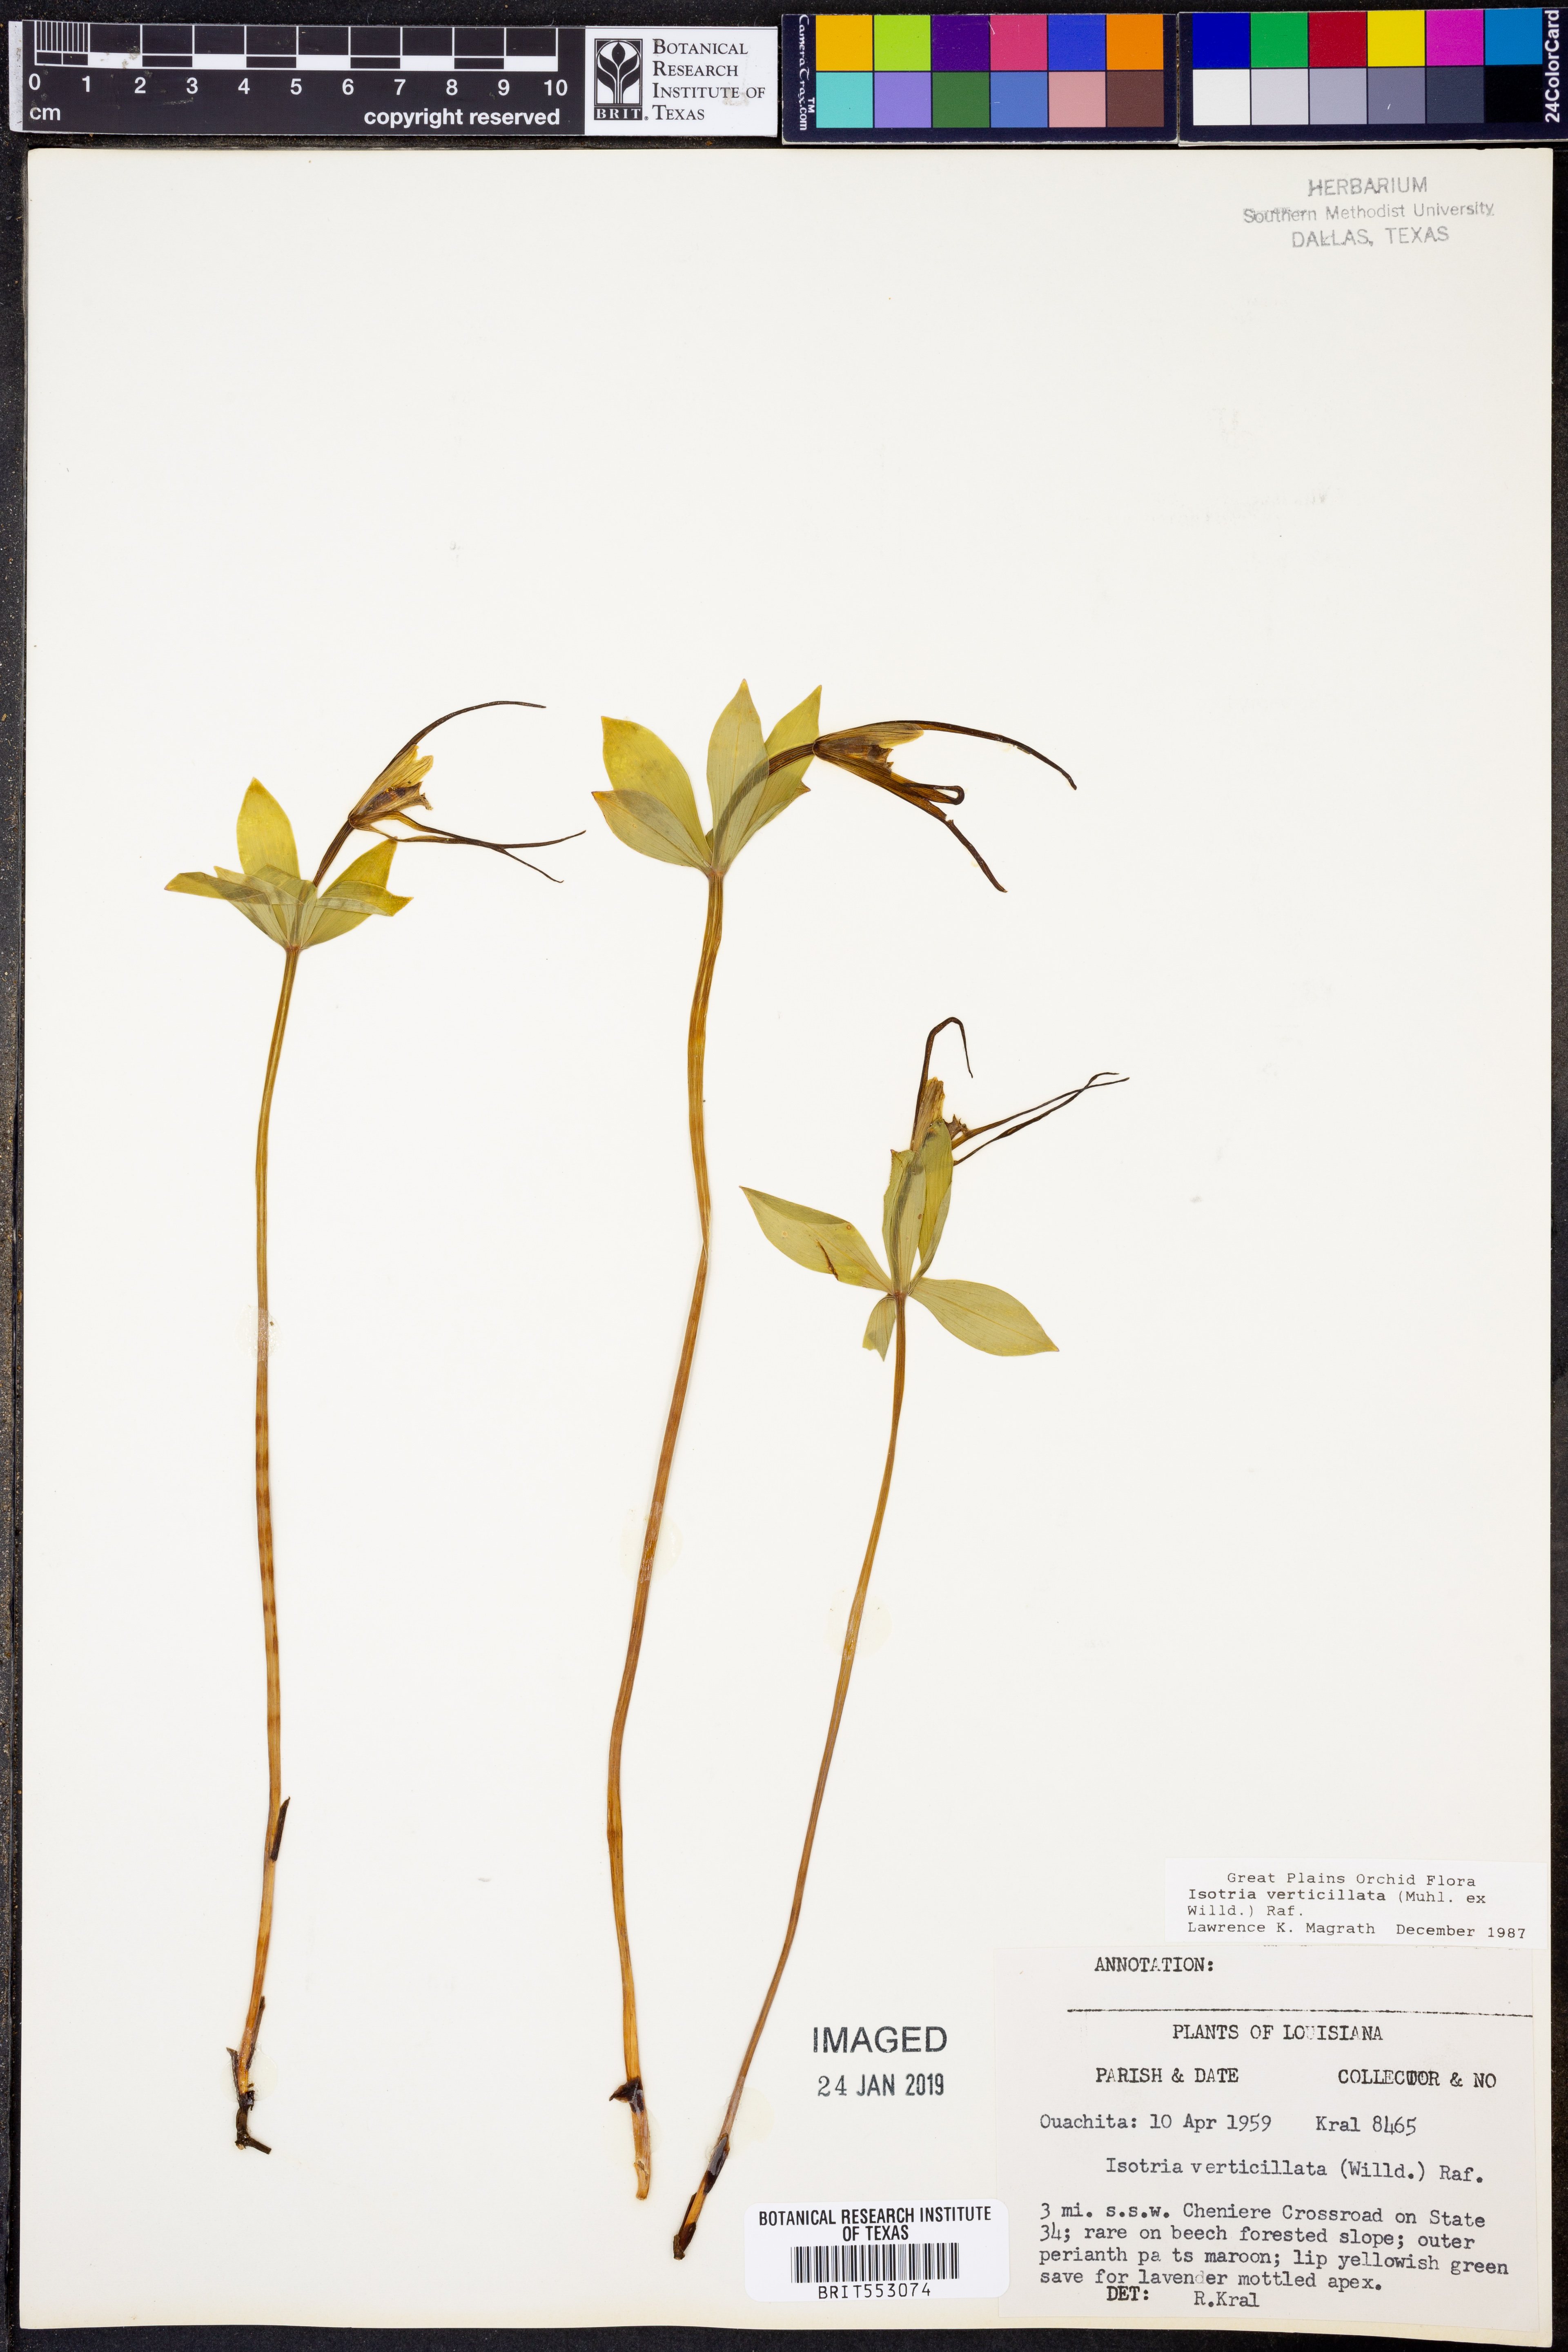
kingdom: Plantae
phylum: Tracheophyta
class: Liliopsida
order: Asparagales
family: Orchidaceae
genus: Isotria
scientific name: Isotria verticillata
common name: Large whorled pogonia
